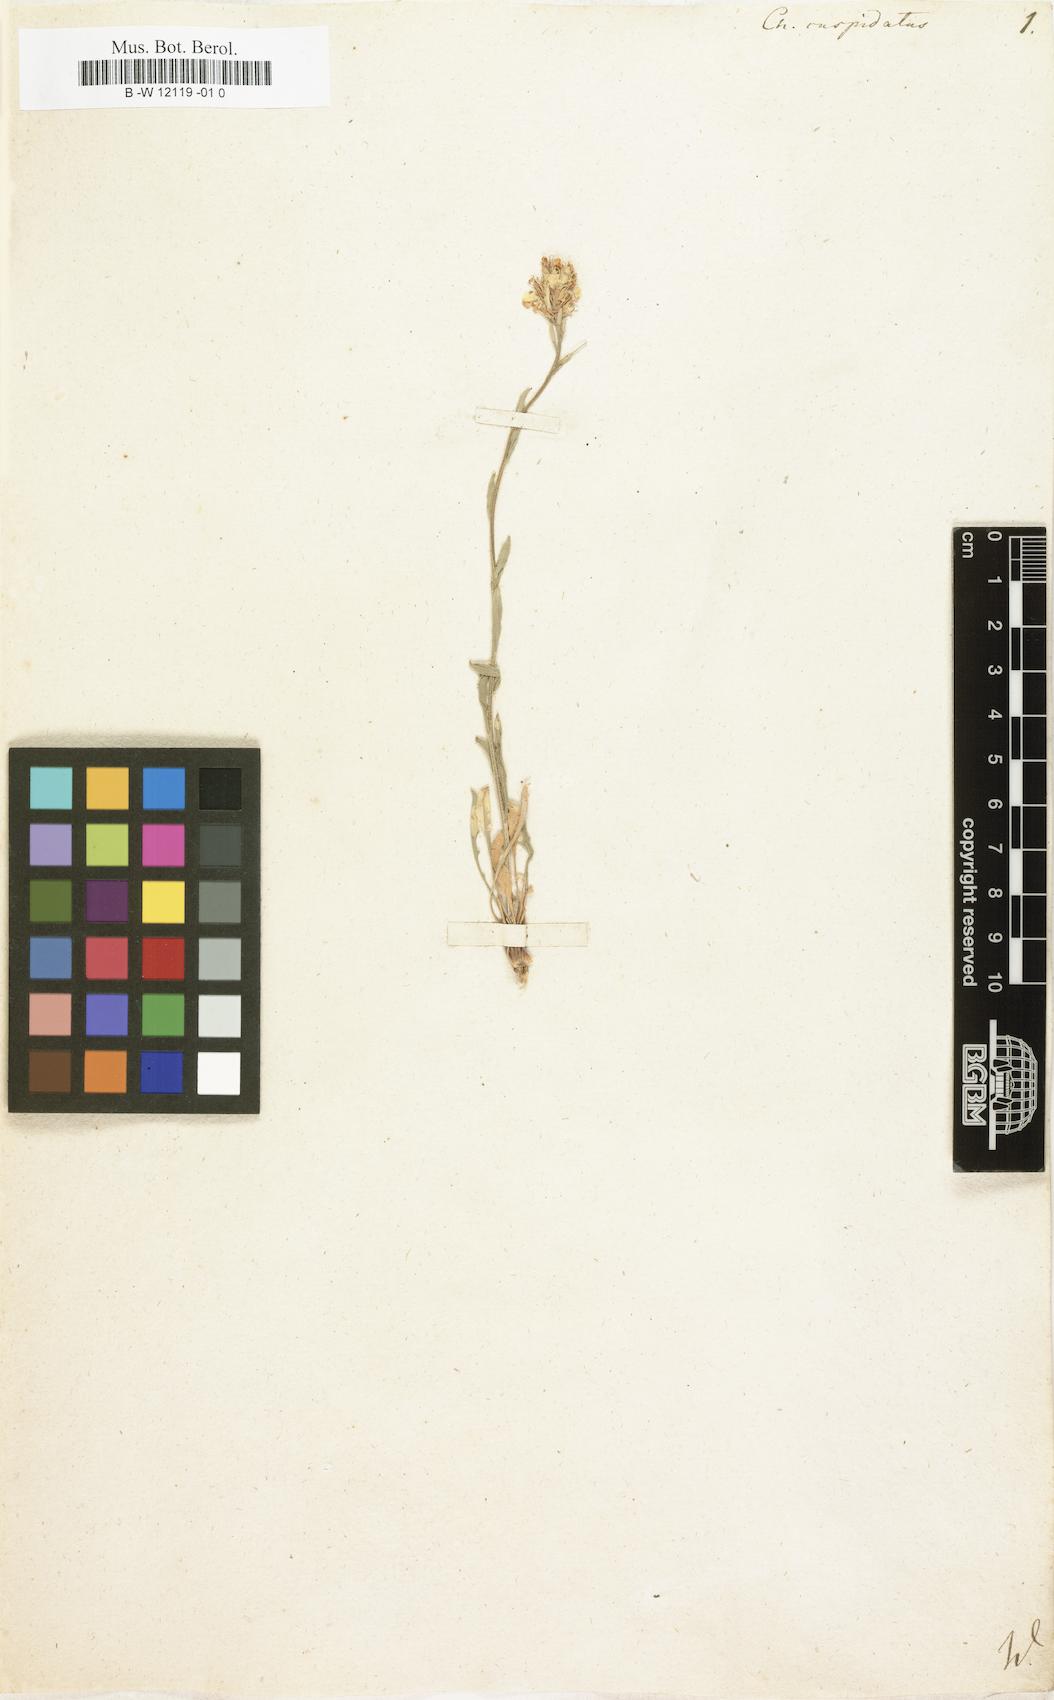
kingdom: Plantae
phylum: Tracheophyta
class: Magnoliopsida
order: Brassicales
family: Brassicaceae
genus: Erysimum
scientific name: Erysimum cuspidatum
